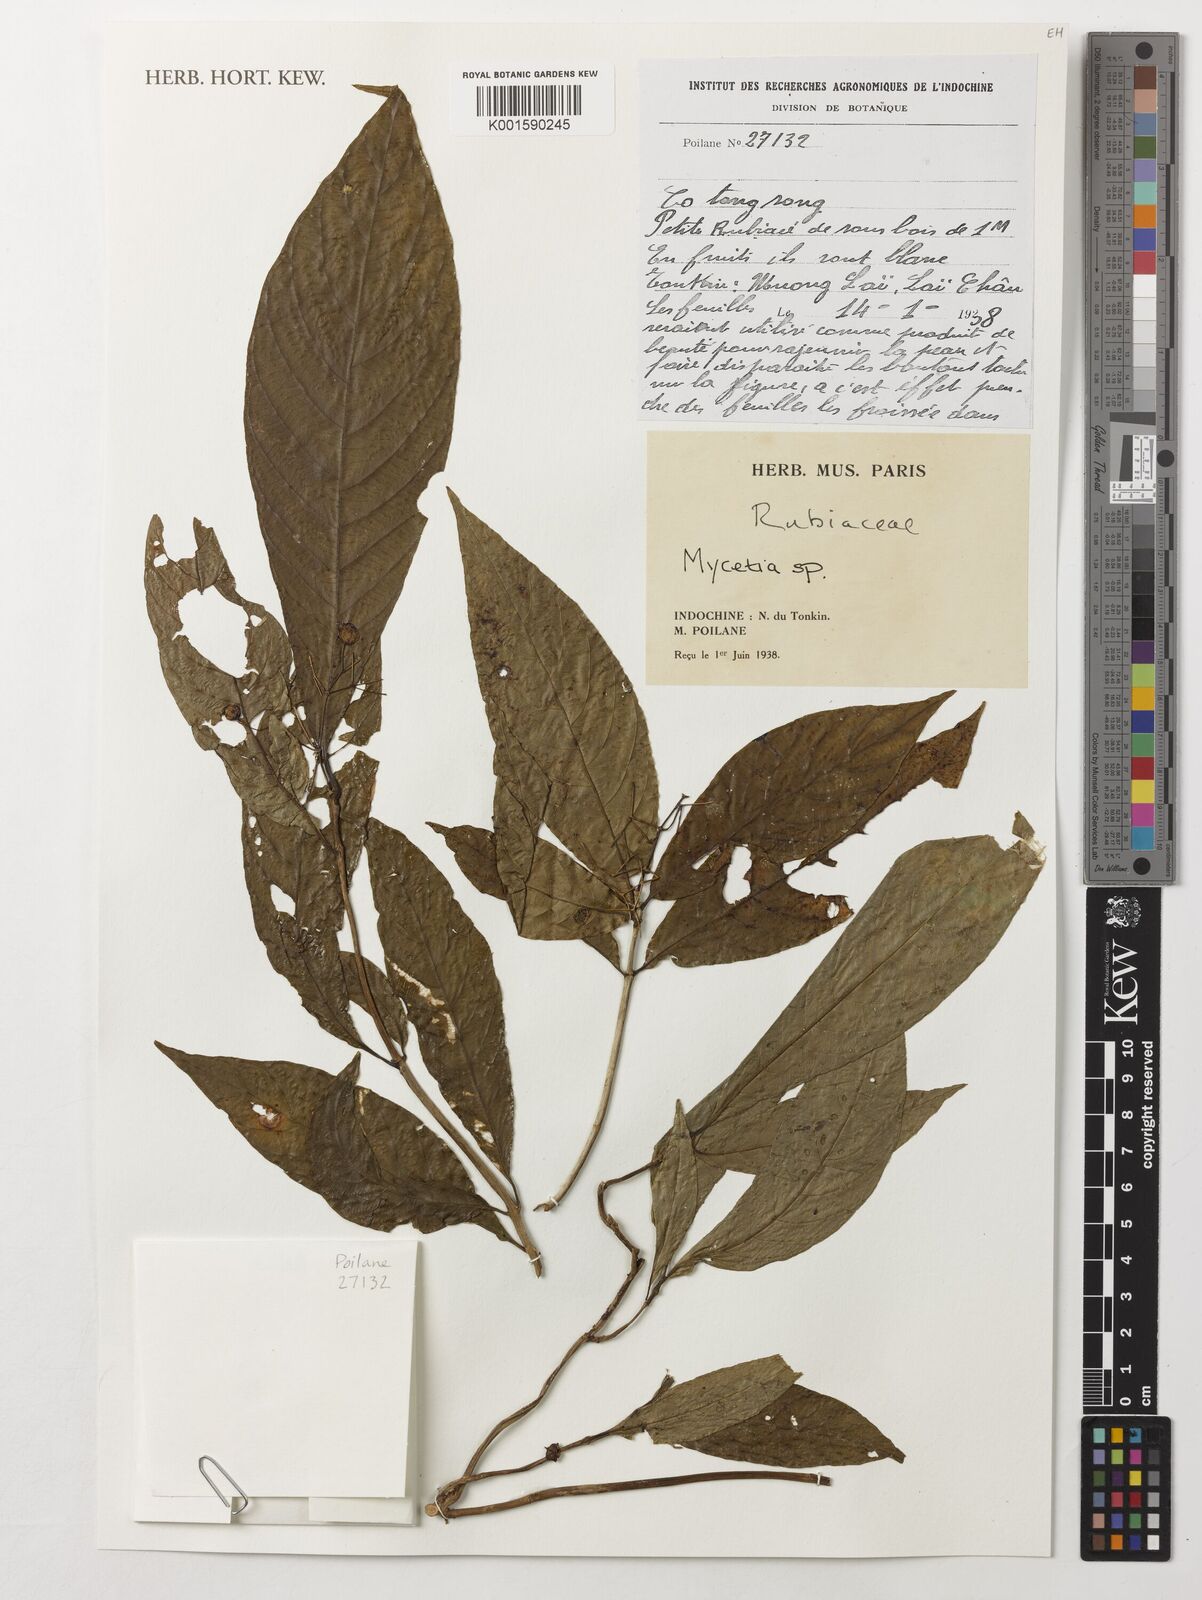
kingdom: Plantae
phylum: Tracheophyta
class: Magnoliopsida
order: Gentianales
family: Rubiaceae
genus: Mycetia
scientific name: Mycetia
